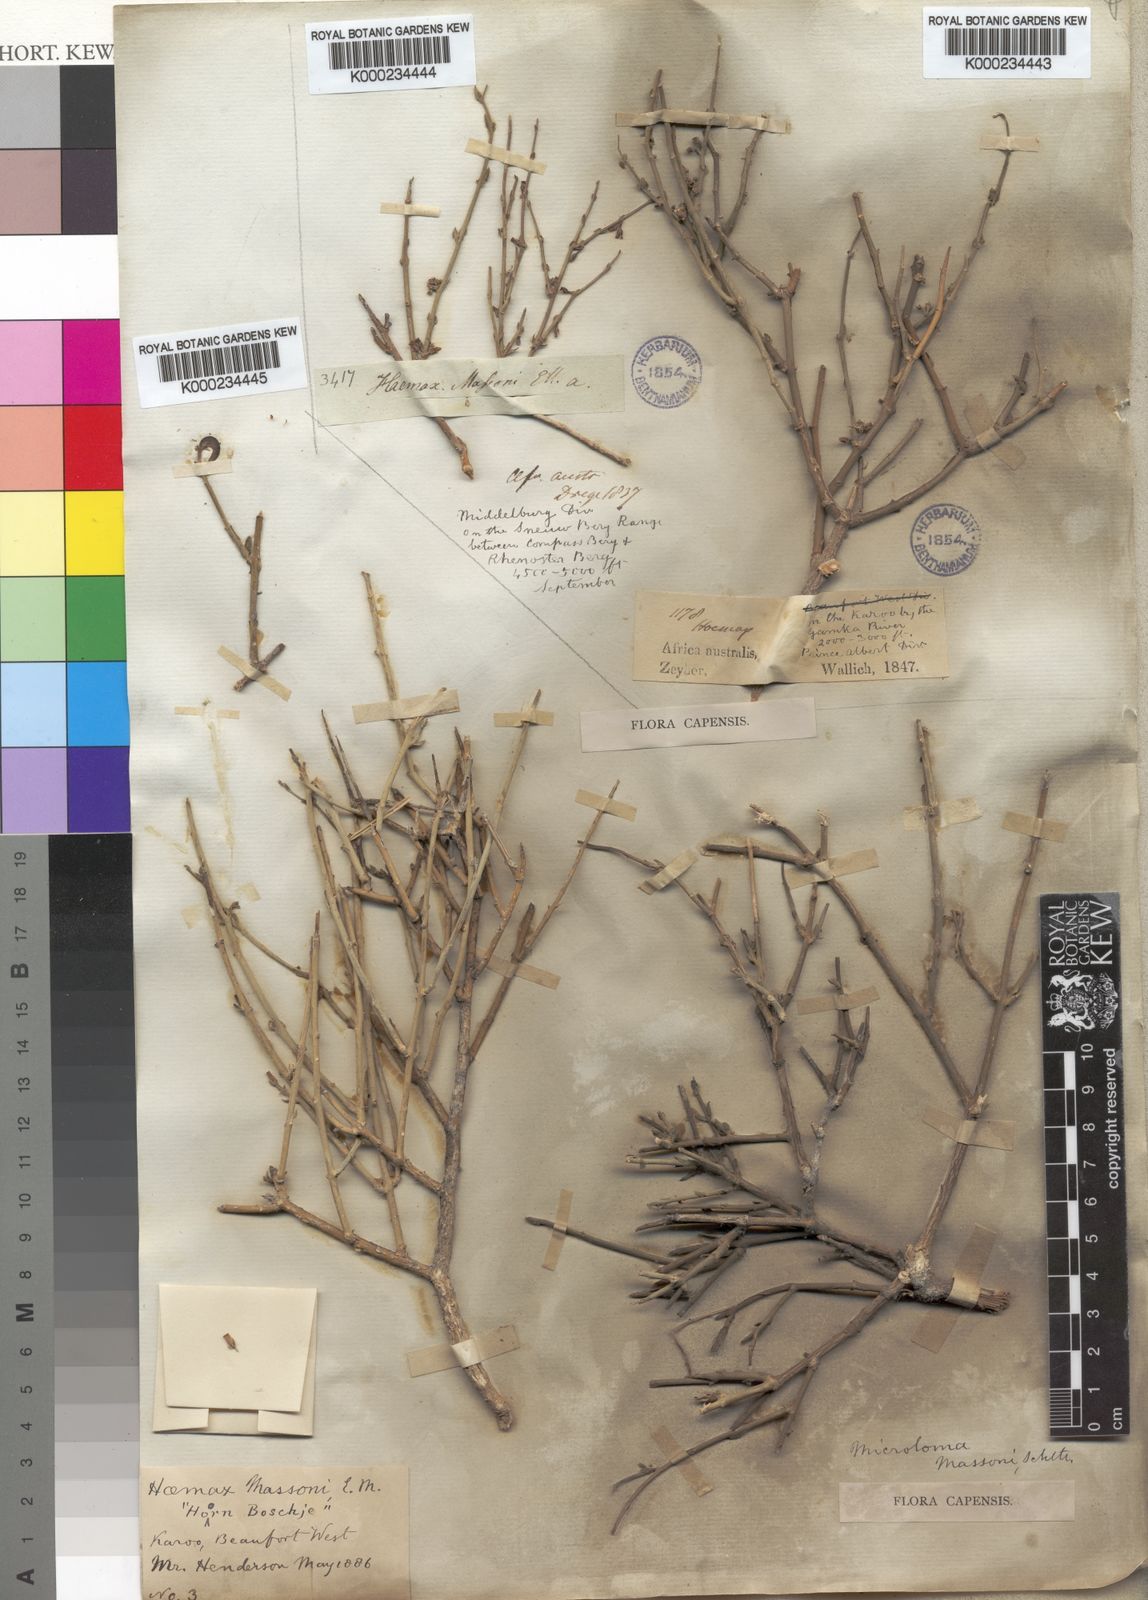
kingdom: Plantae
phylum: Tracheophyta
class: Magnoliopsida
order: Gentianales
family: Apocynaceae
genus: Microloma
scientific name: Microloma armatum
